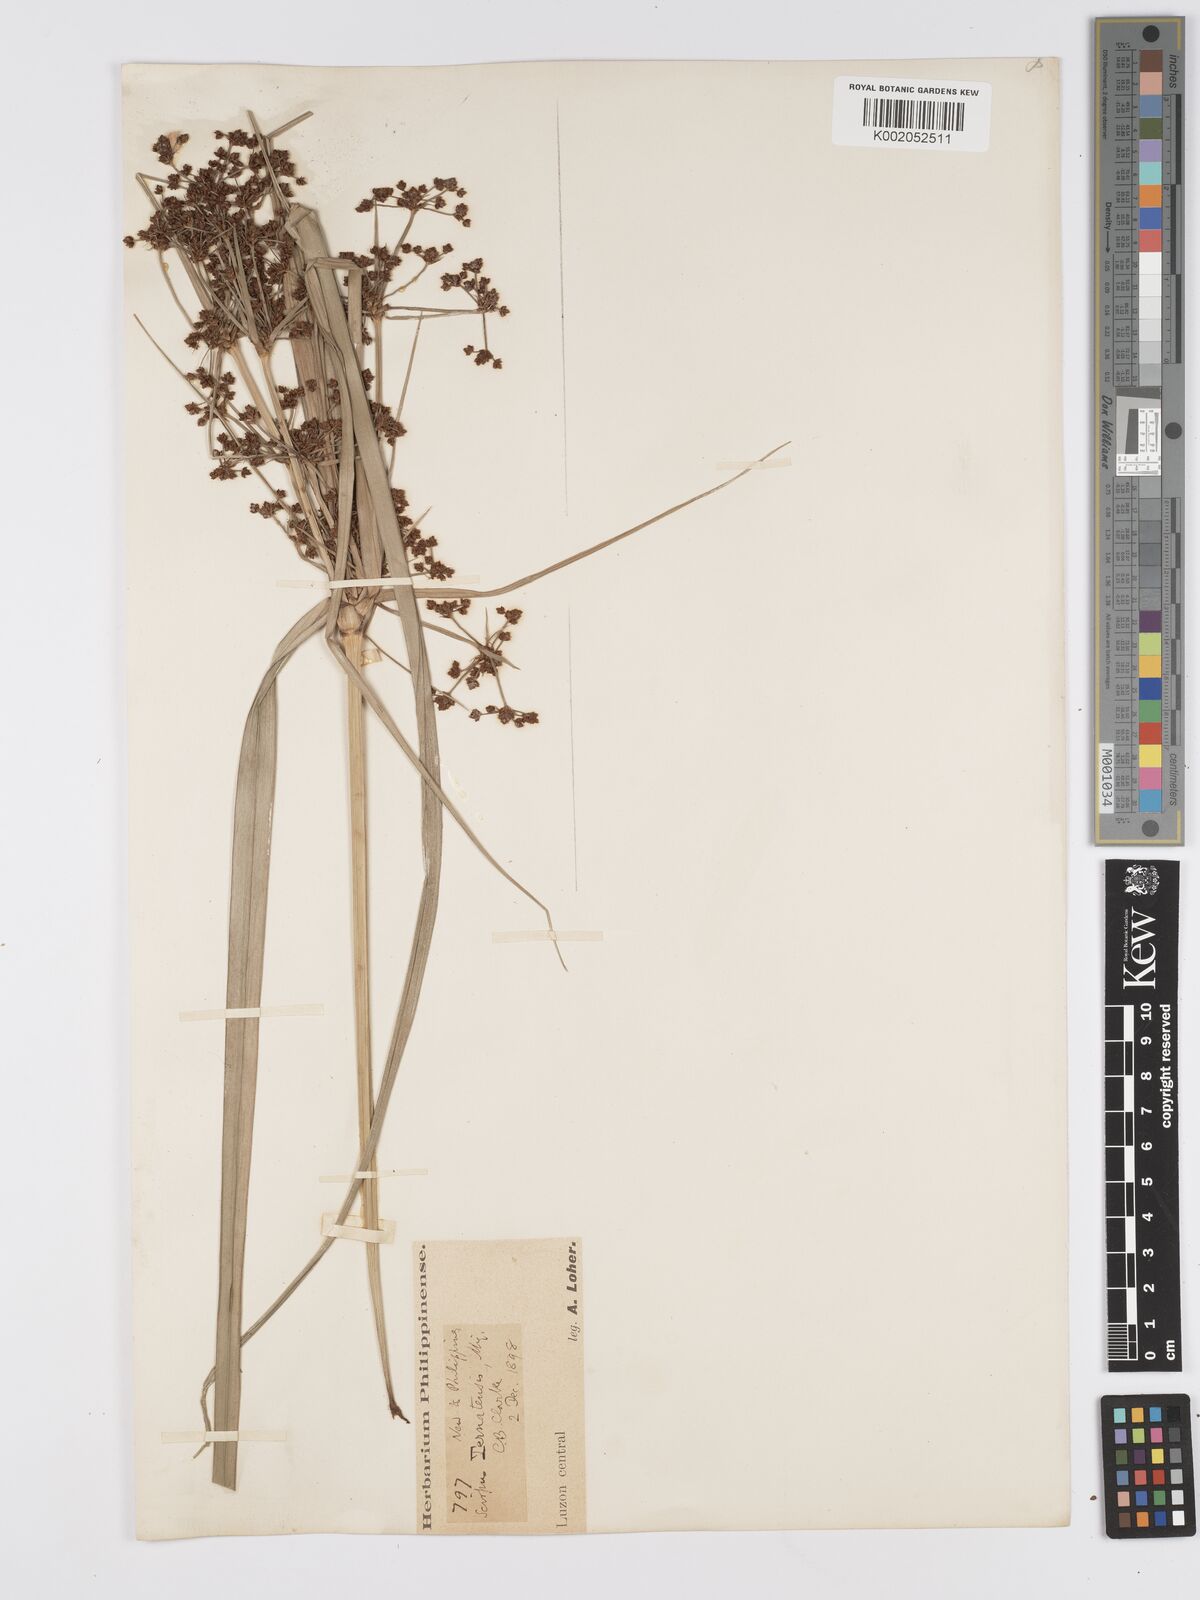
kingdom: Plantae
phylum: Tracheophyta
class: Liliopsida
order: Poales
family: Cyperaceae
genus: Scirpus
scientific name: Scirpus ternatanus
